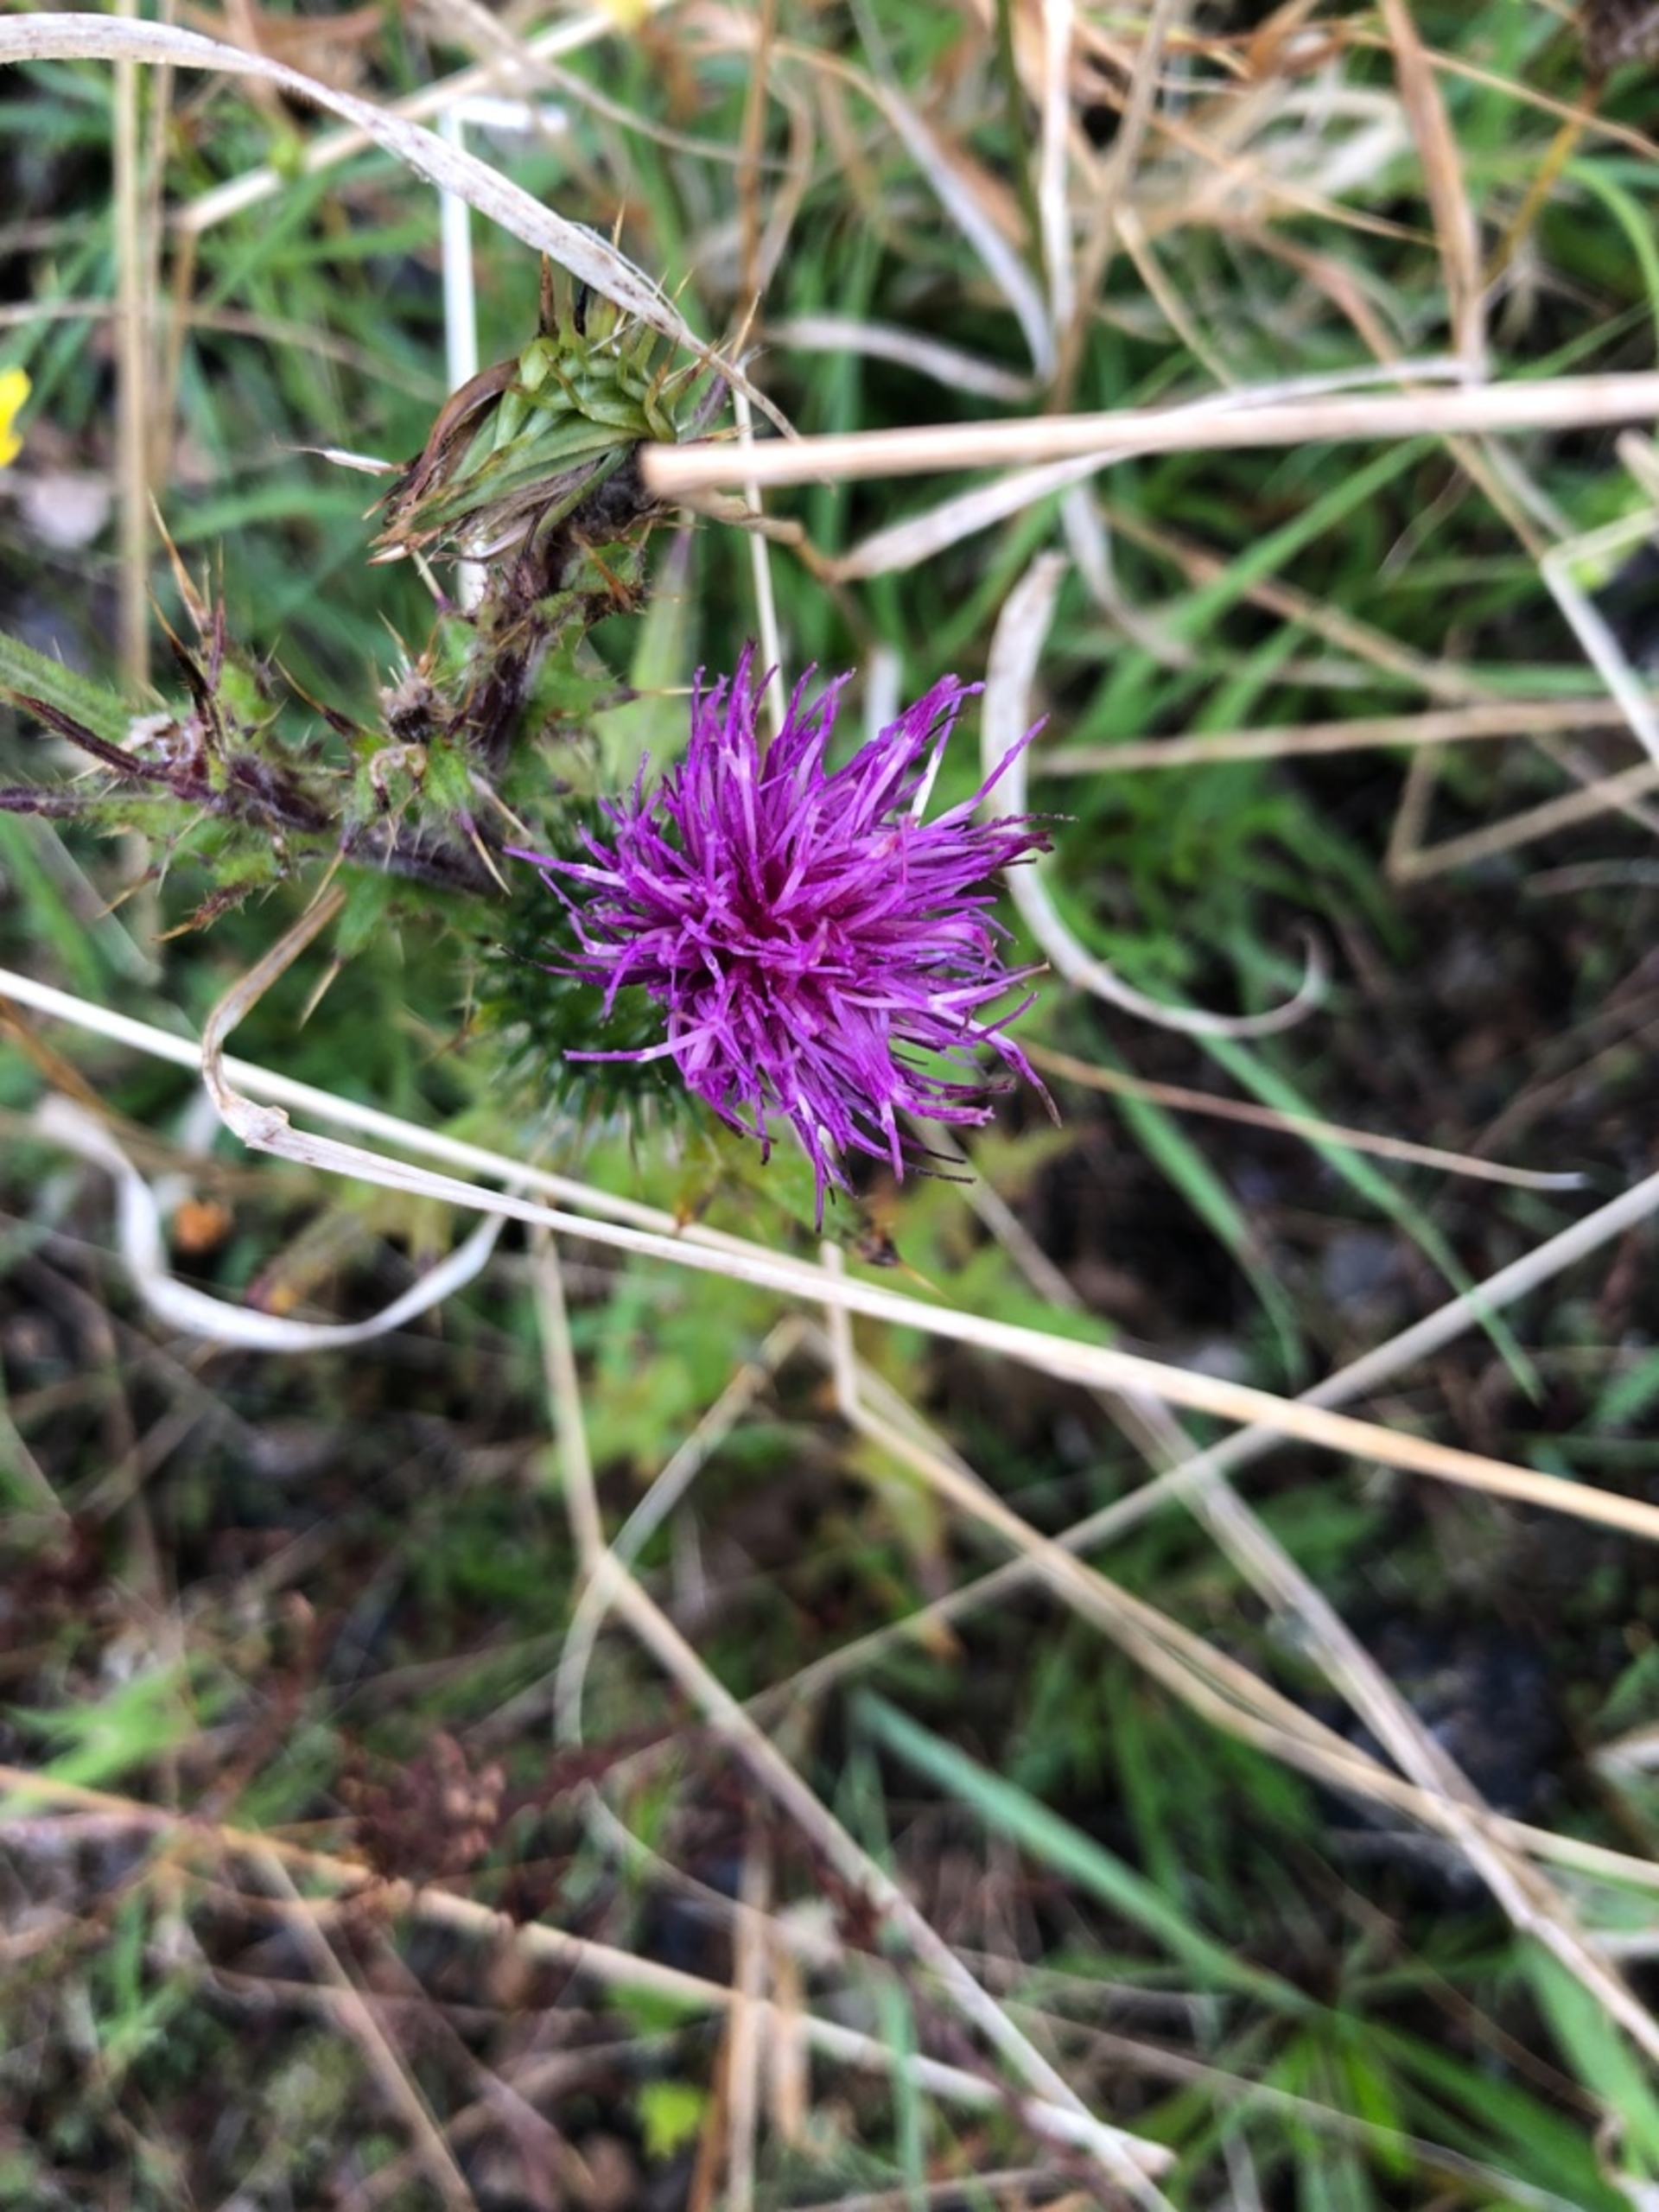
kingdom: Plantae
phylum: Tracheophyta
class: Magnoliopsida
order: Asterales
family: Asteraceae
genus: Cirsium
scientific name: Cirsium vulgare
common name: Horse-tidsel
